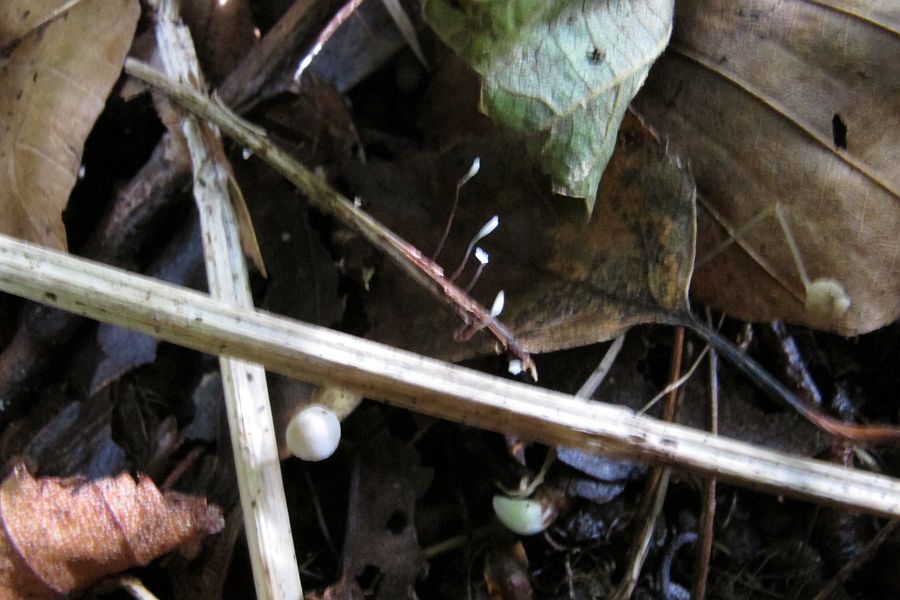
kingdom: Fungi
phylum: Basidiomycota
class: Agaricomycetes
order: Agaricales
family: Typhulaceae
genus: Typhula
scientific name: Typhula erythropus
